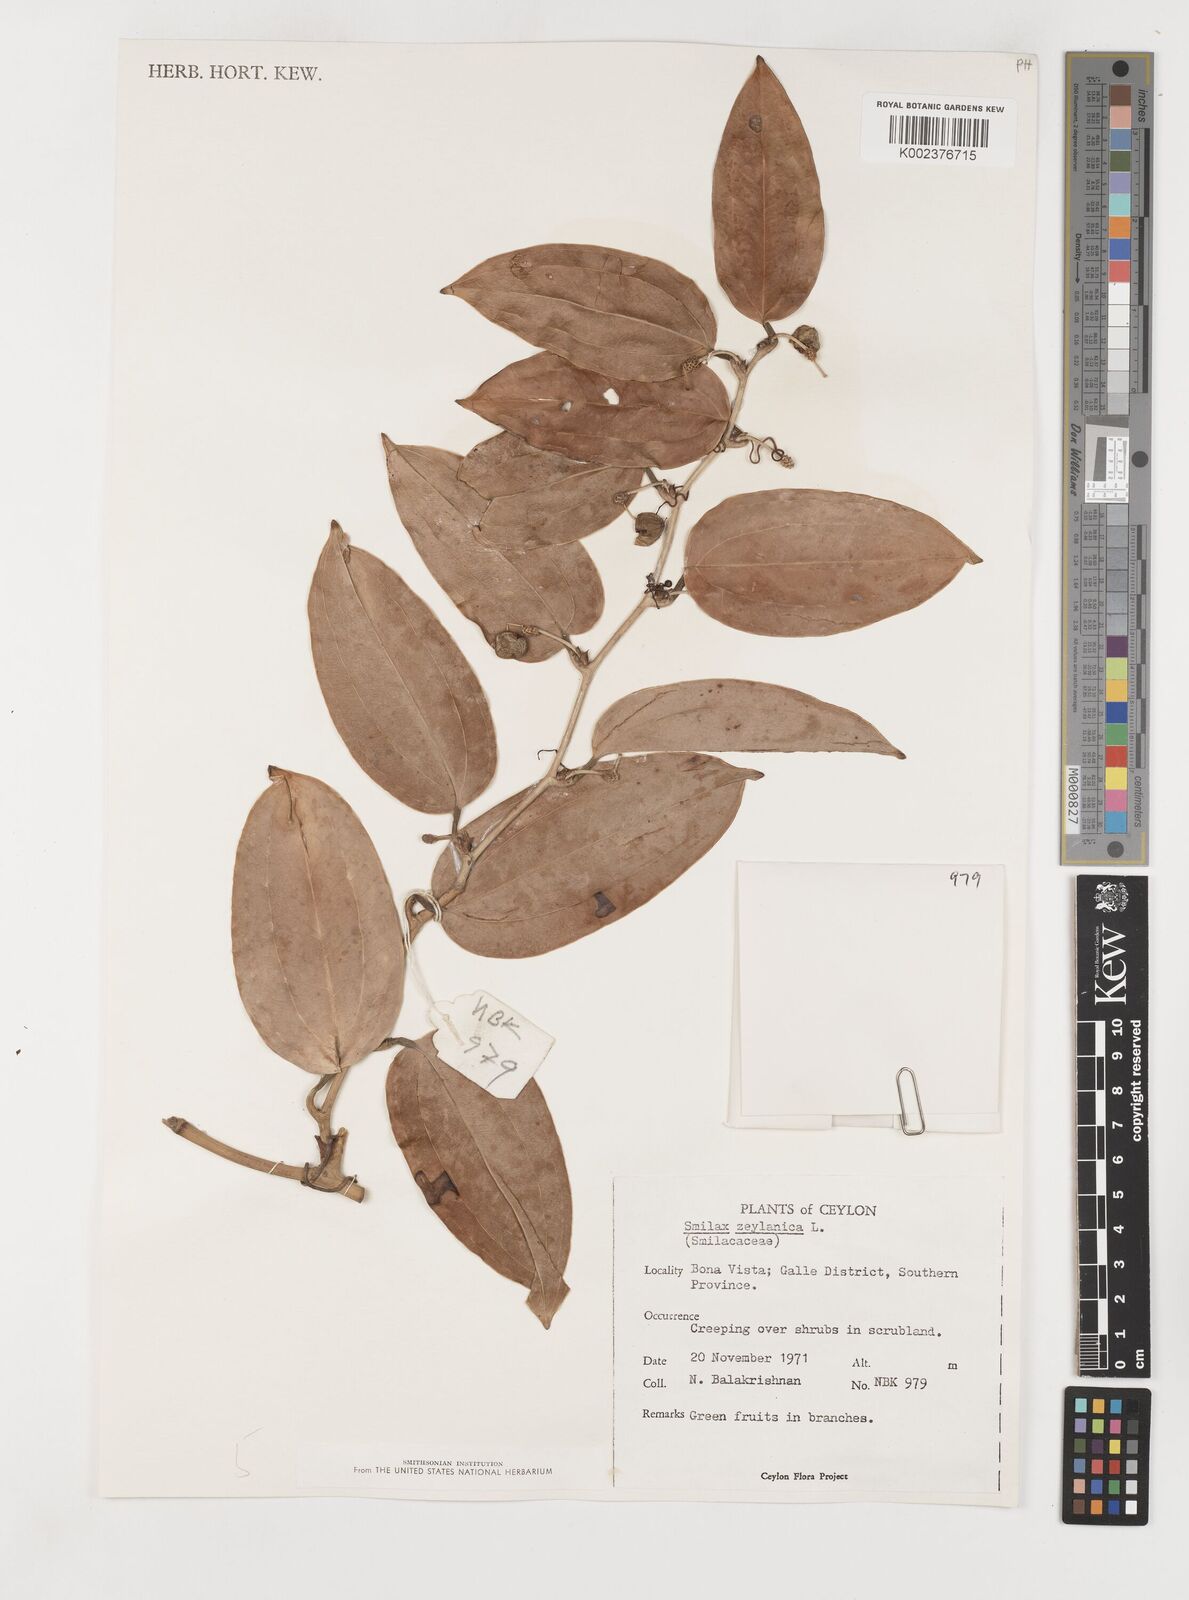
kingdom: Plantae
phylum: Tracheophyta
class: Liliopsida
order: Liliales
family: Smilacaceae
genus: Smilax
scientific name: Smilax zeylanica
